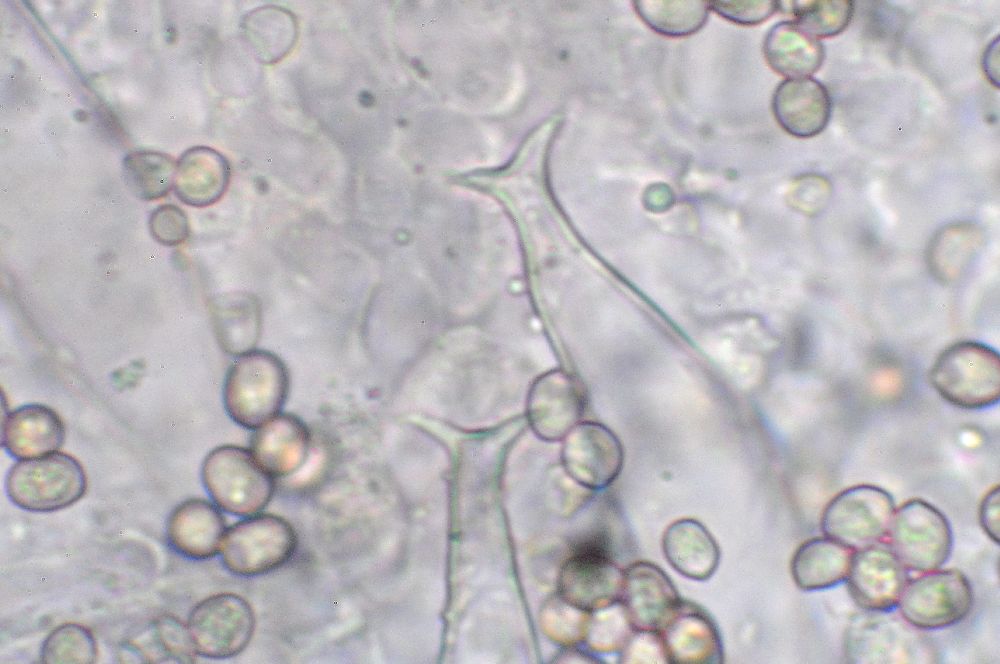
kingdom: Fungi
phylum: Basidiomycota
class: Agaricomycetes
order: Agaricales
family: Pluteaceae
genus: Pluteus
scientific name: Pluteus pouzarianus
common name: plantage-skærmhat
